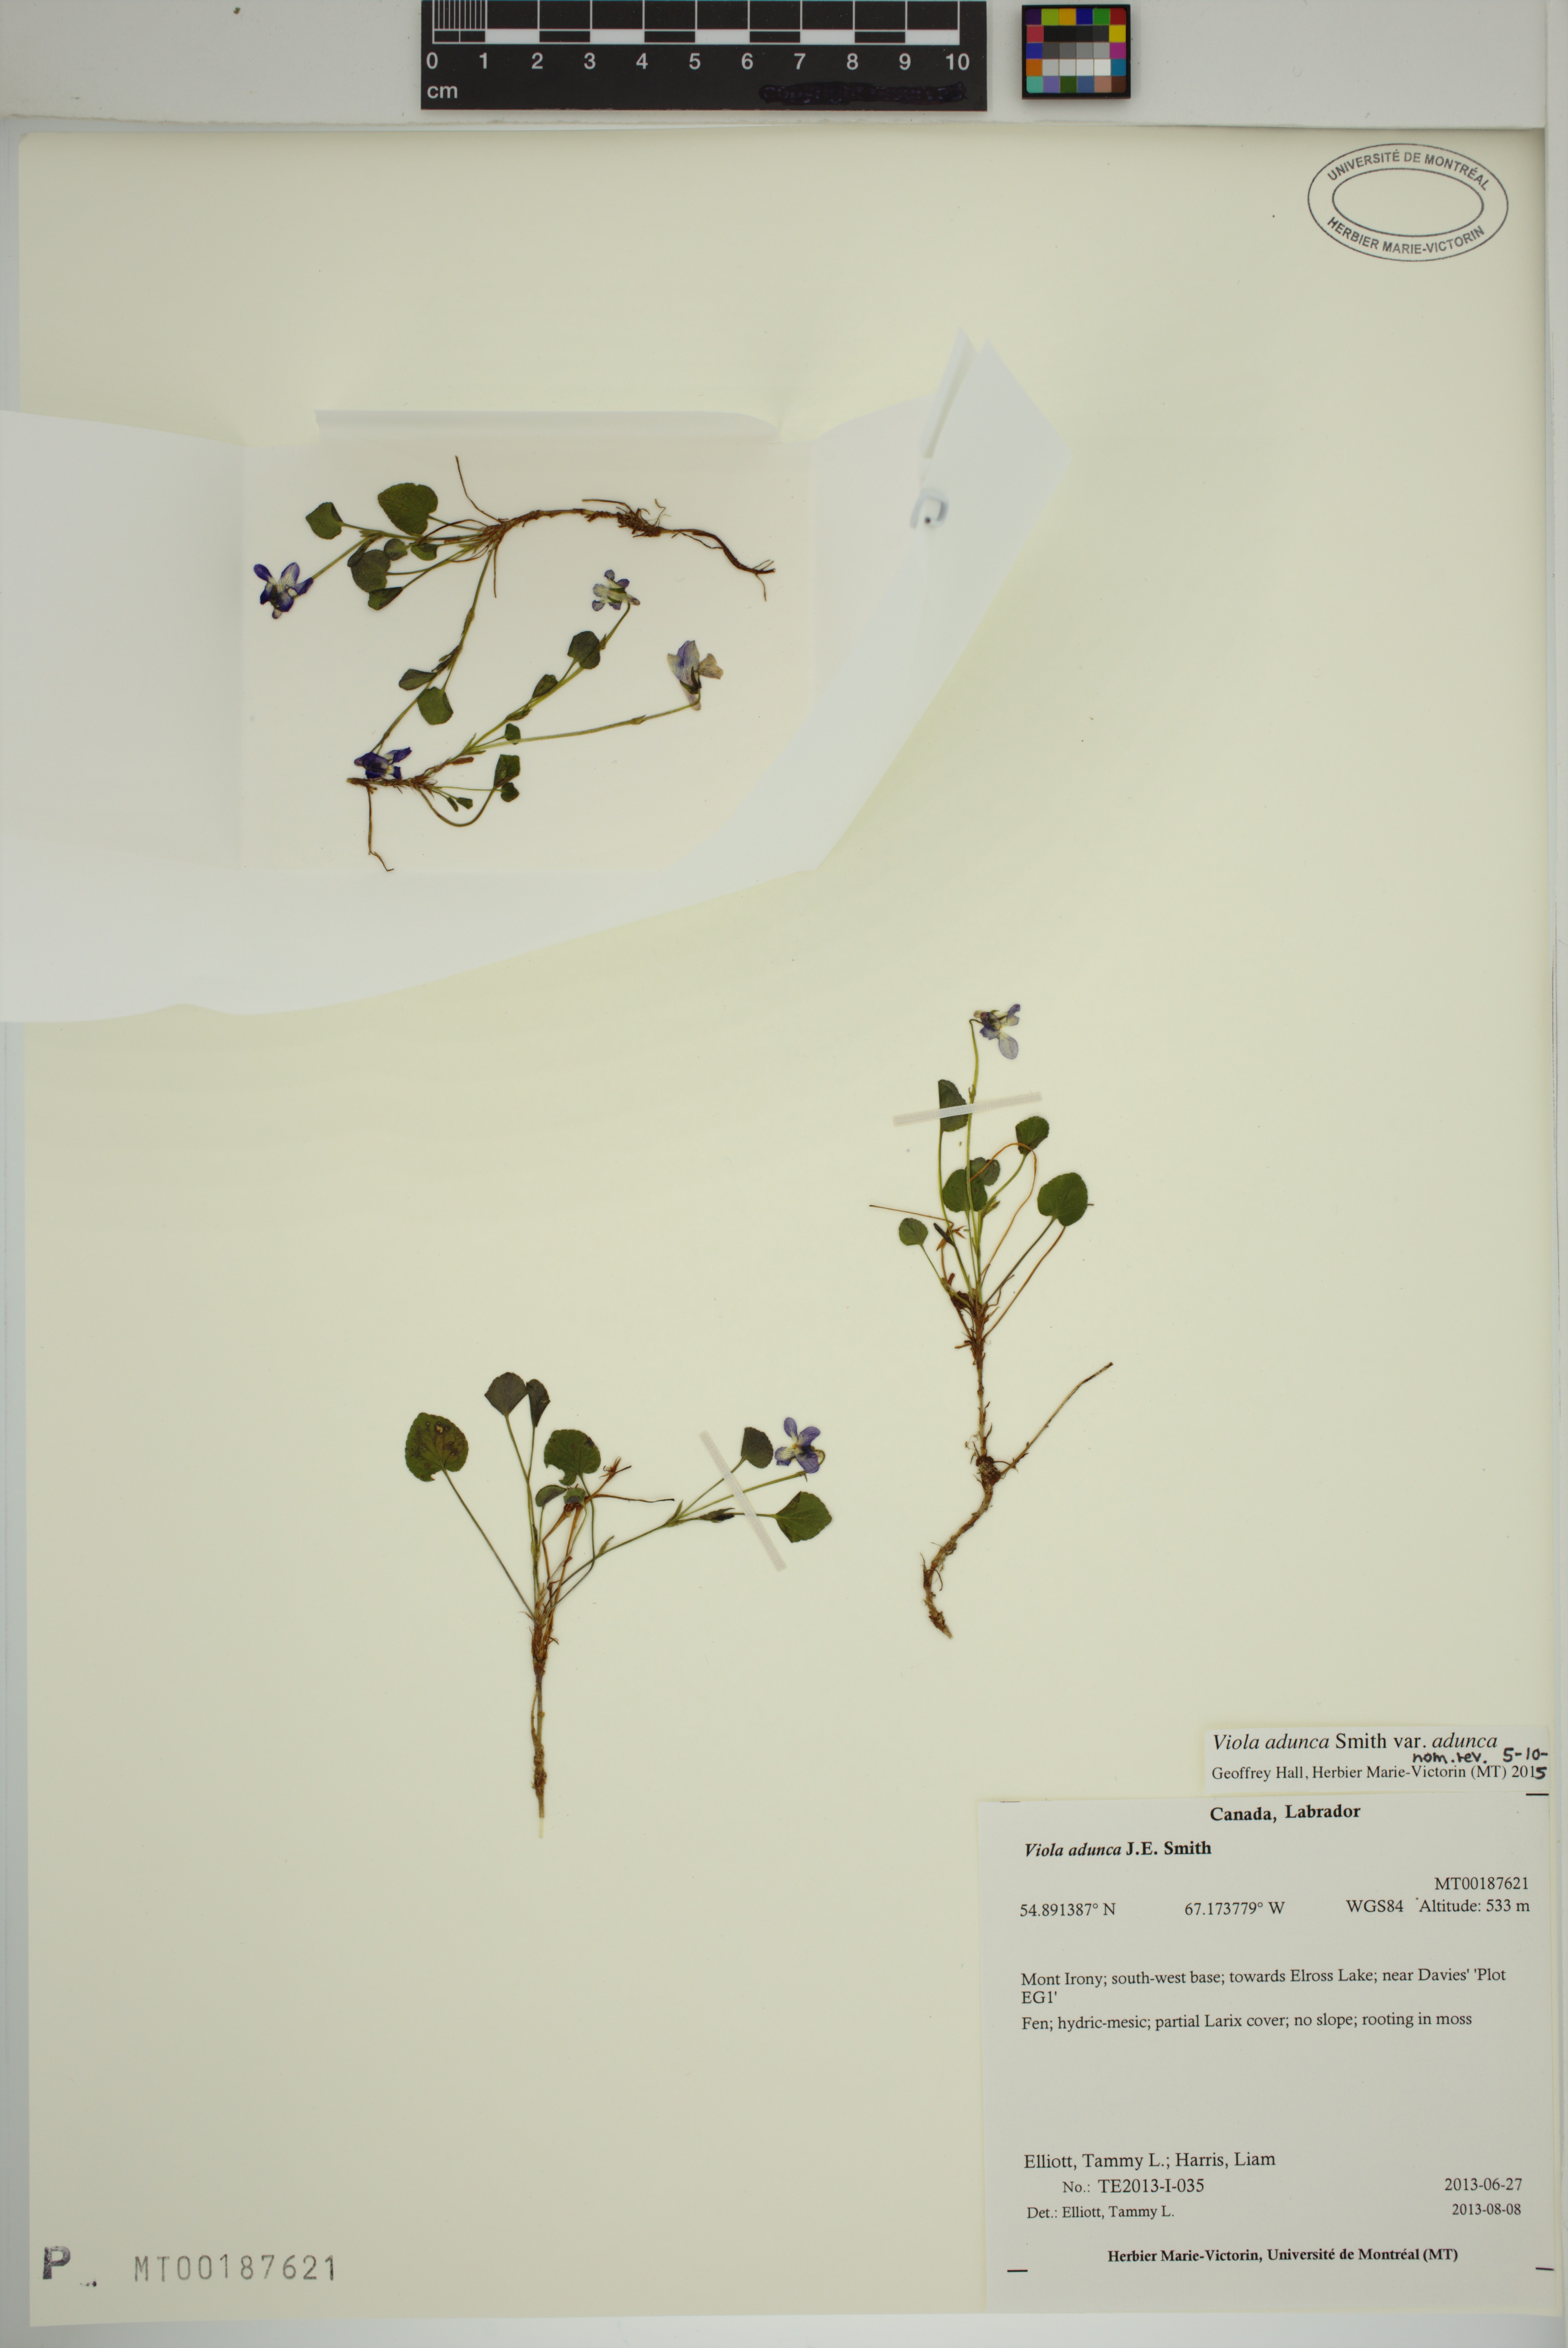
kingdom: Plantae
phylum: Tracheophyta
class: Magnoliopsida
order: Malpighiales
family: Violaceae
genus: Viola
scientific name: Viola adunca
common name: Sand violet
